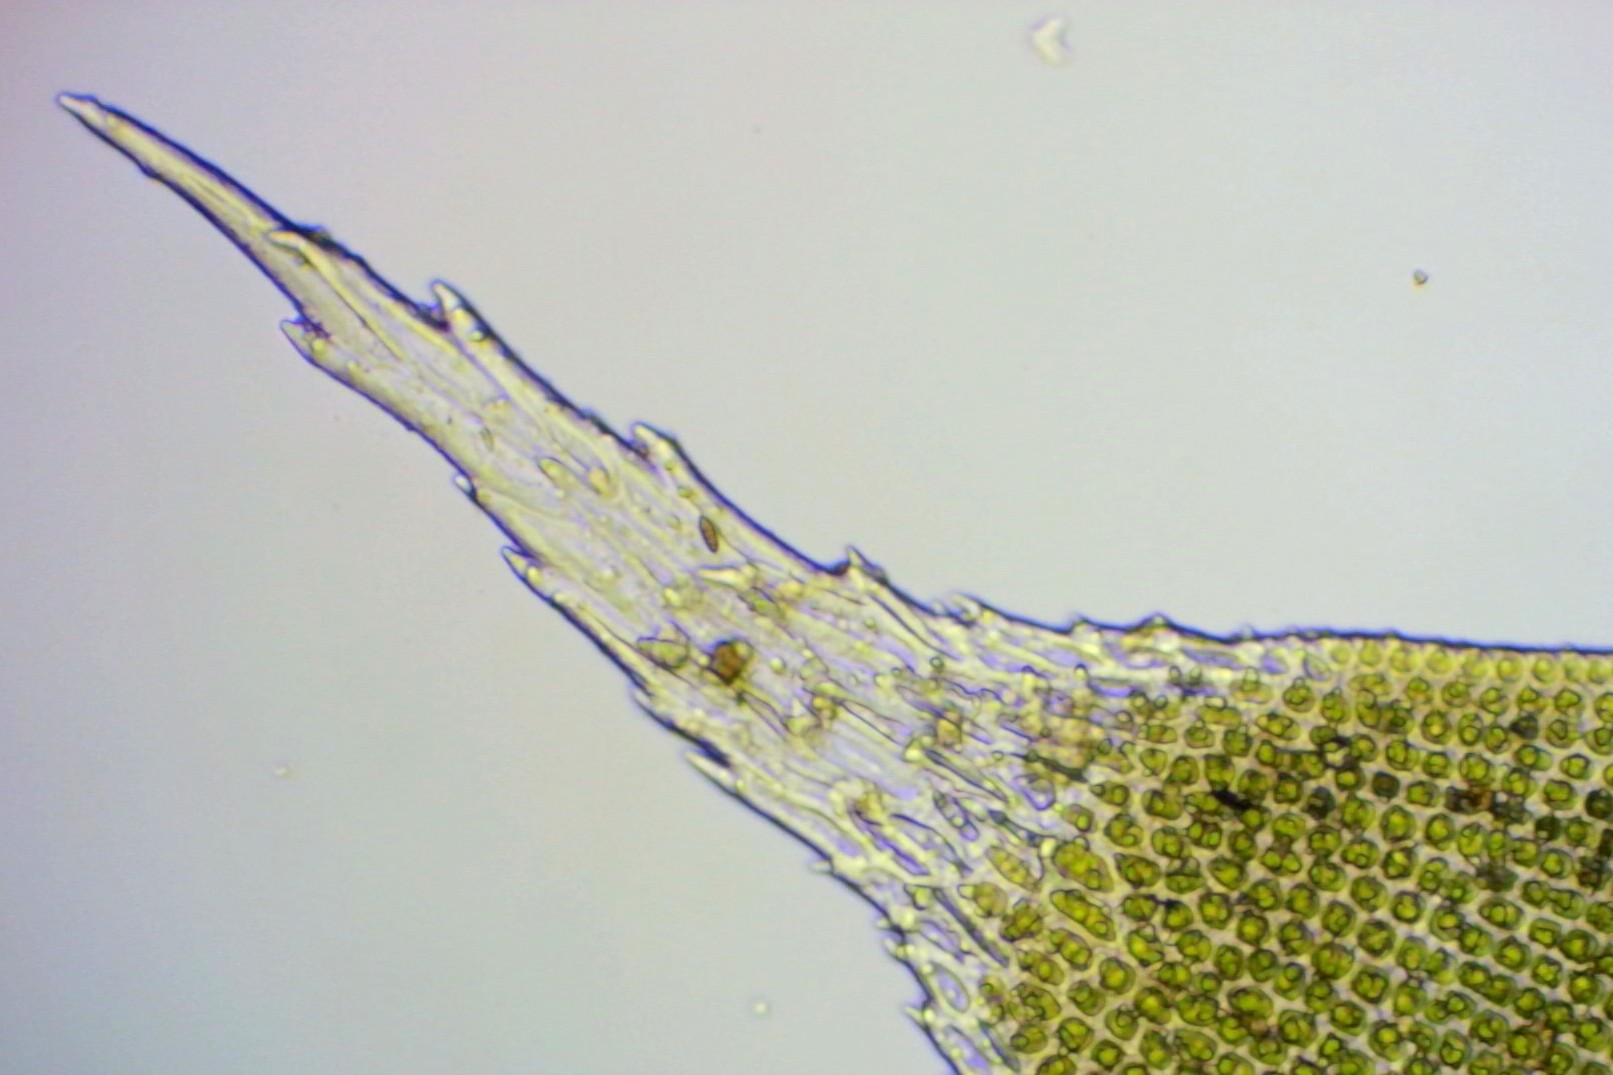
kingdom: Plantae
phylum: Bryophyta
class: Bryopsida
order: Hedwigiales
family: Hedwigiaceae
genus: Hedwigia
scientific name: Hedwigia stellata
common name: Stjernebladet hedwigia
